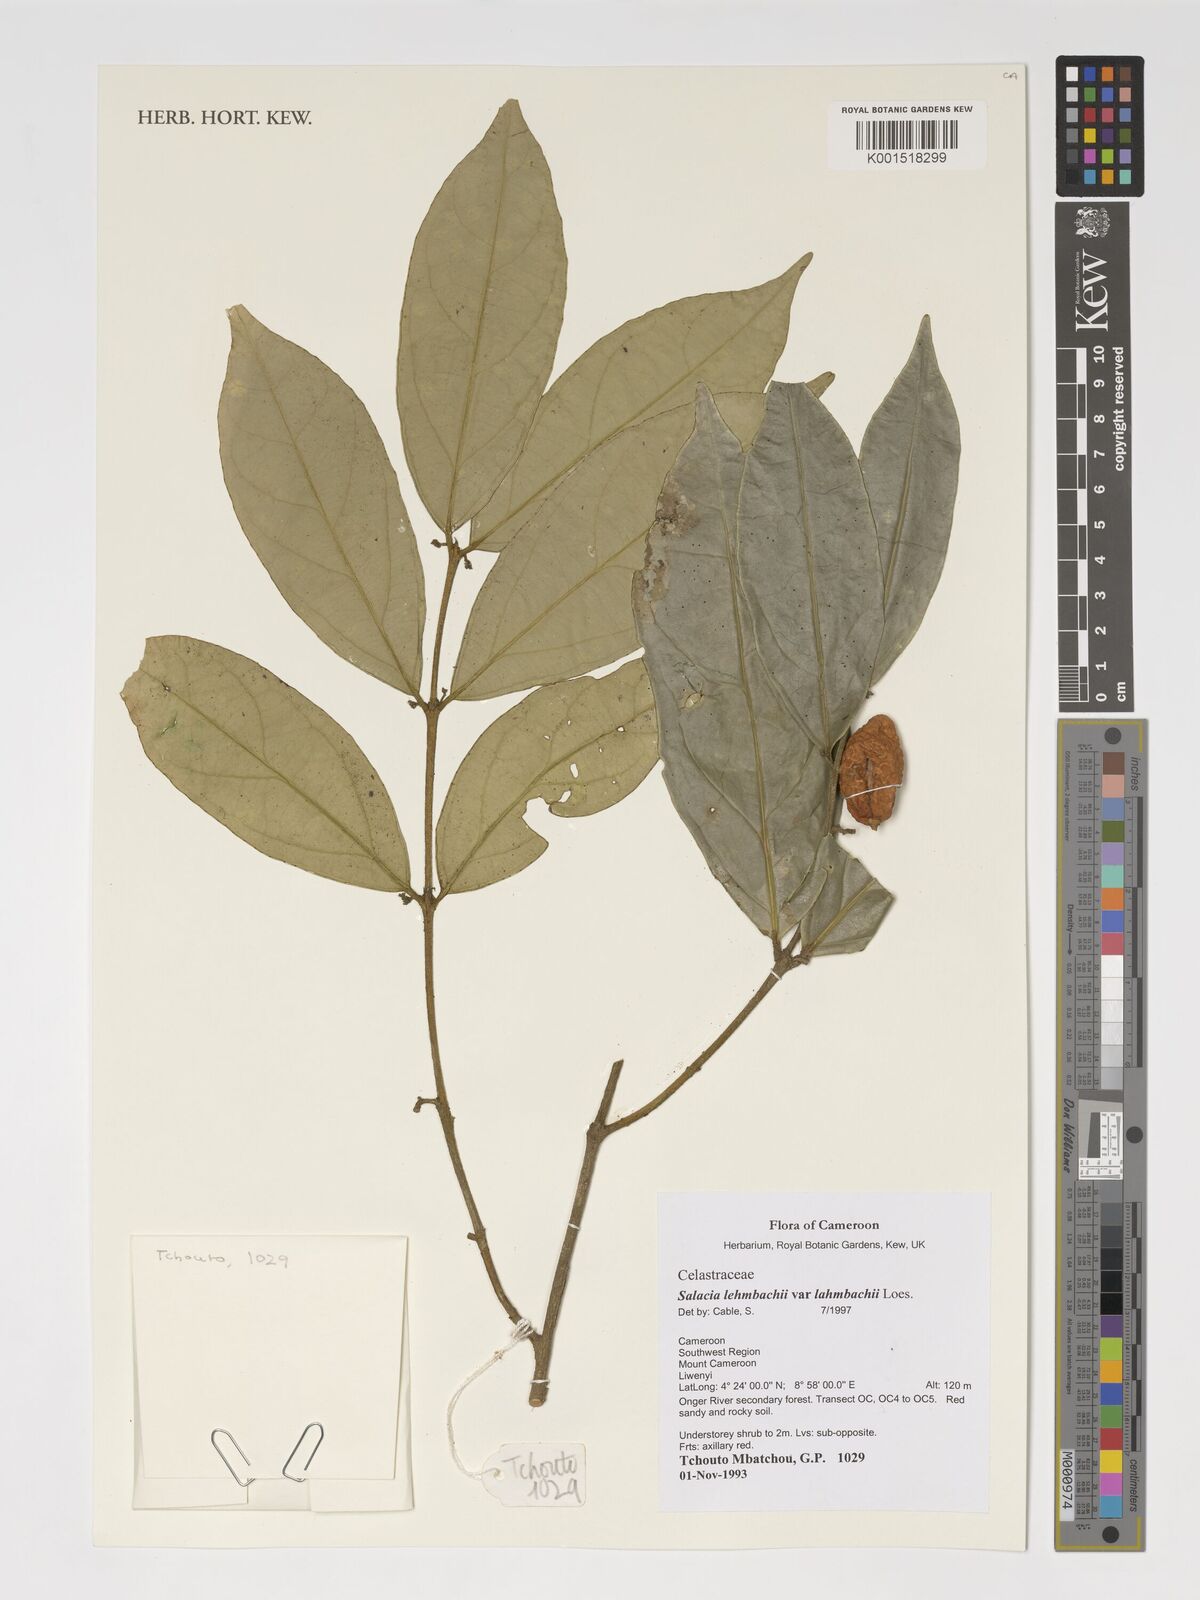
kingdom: Plantae
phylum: Tracheophyta
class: Magnoliopsida
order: Celastrales
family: Celastraceae
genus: Salacia
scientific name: Salacia lehmbachii
